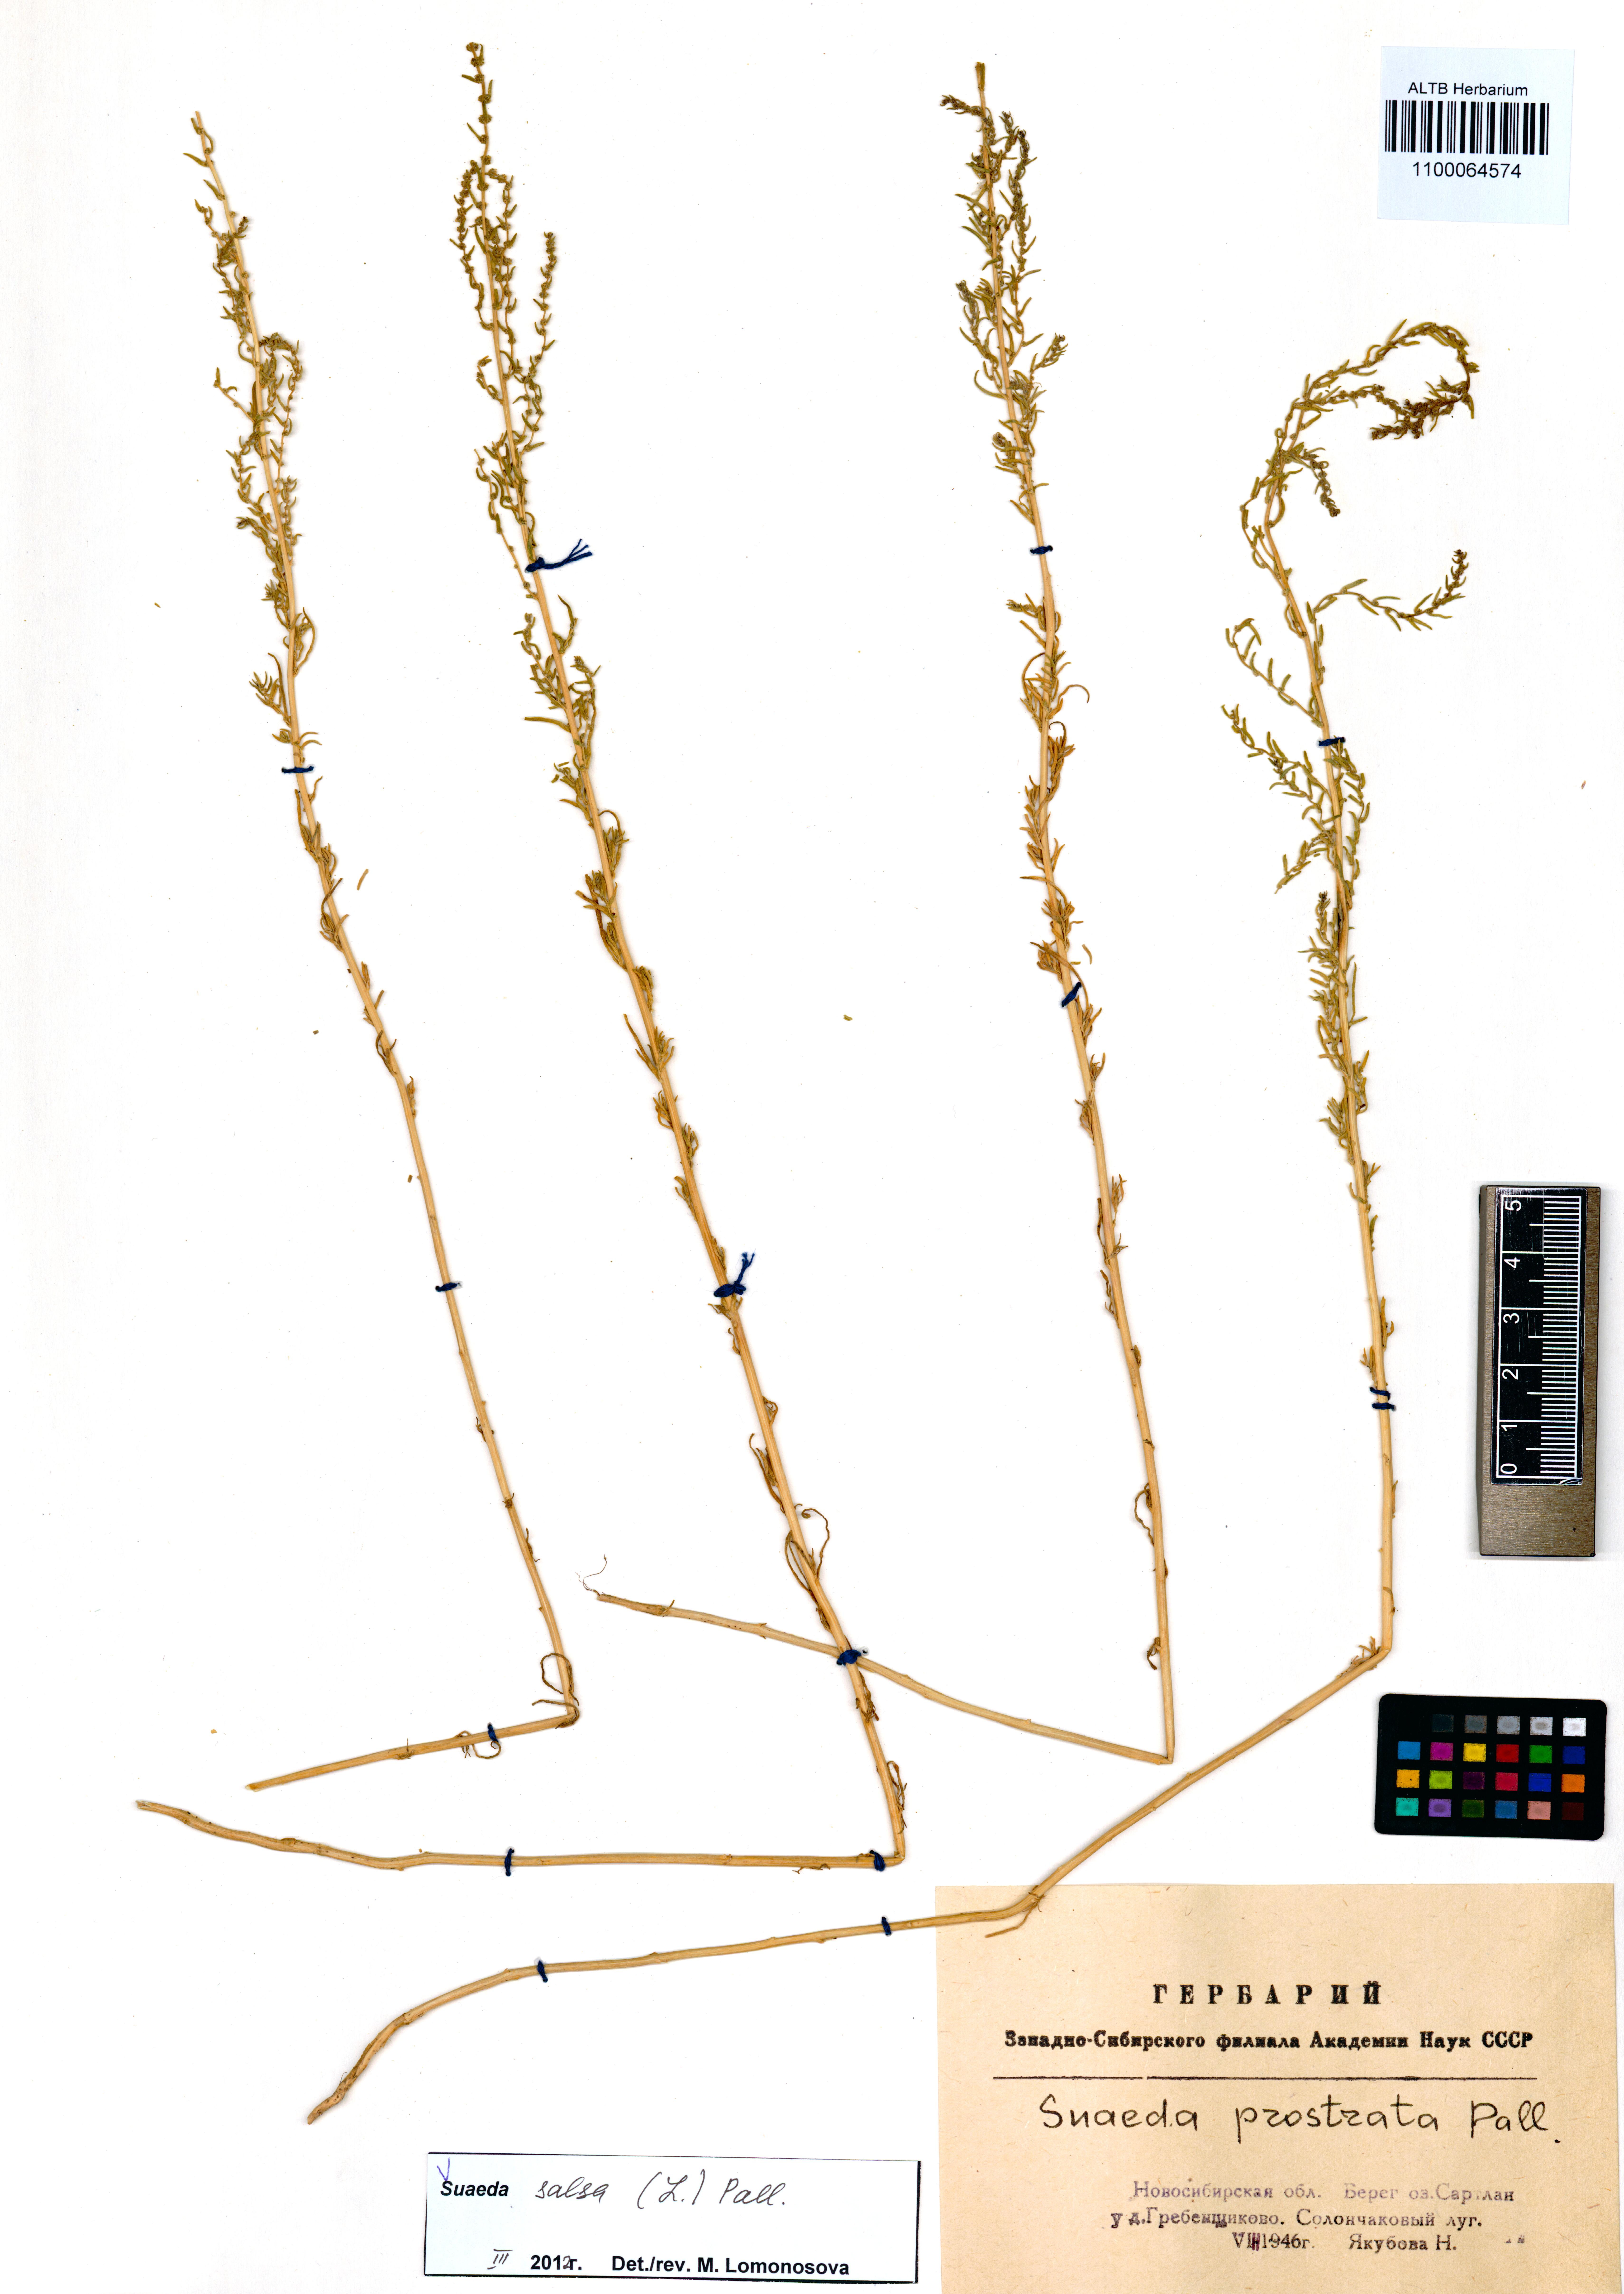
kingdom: Plantae
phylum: Tracheophyta
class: Magnoliopsida
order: Caryophyllales
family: Amaranthaceae
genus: Suaeda
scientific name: Suaeda salsa
